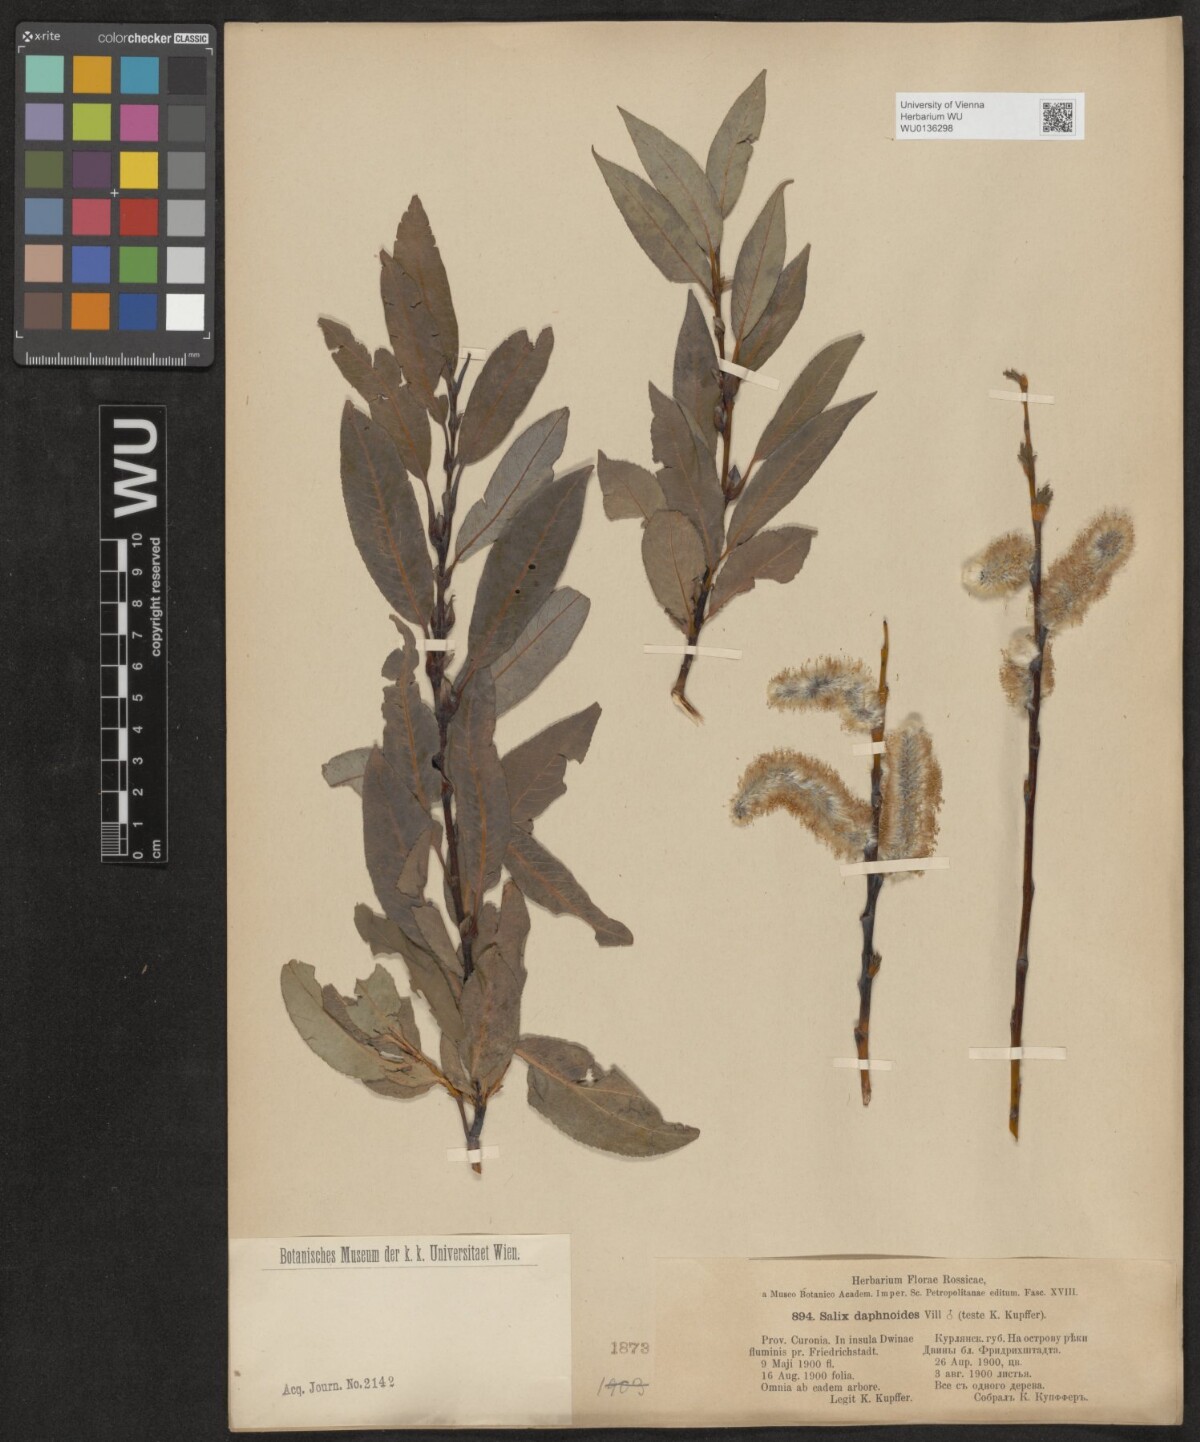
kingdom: Plantae
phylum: Tracheophyta
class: Magnoliopsida
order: Malpighiales
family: Salicaceae
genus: Salix
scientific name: Salix daphnoides
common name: European violet-willow
